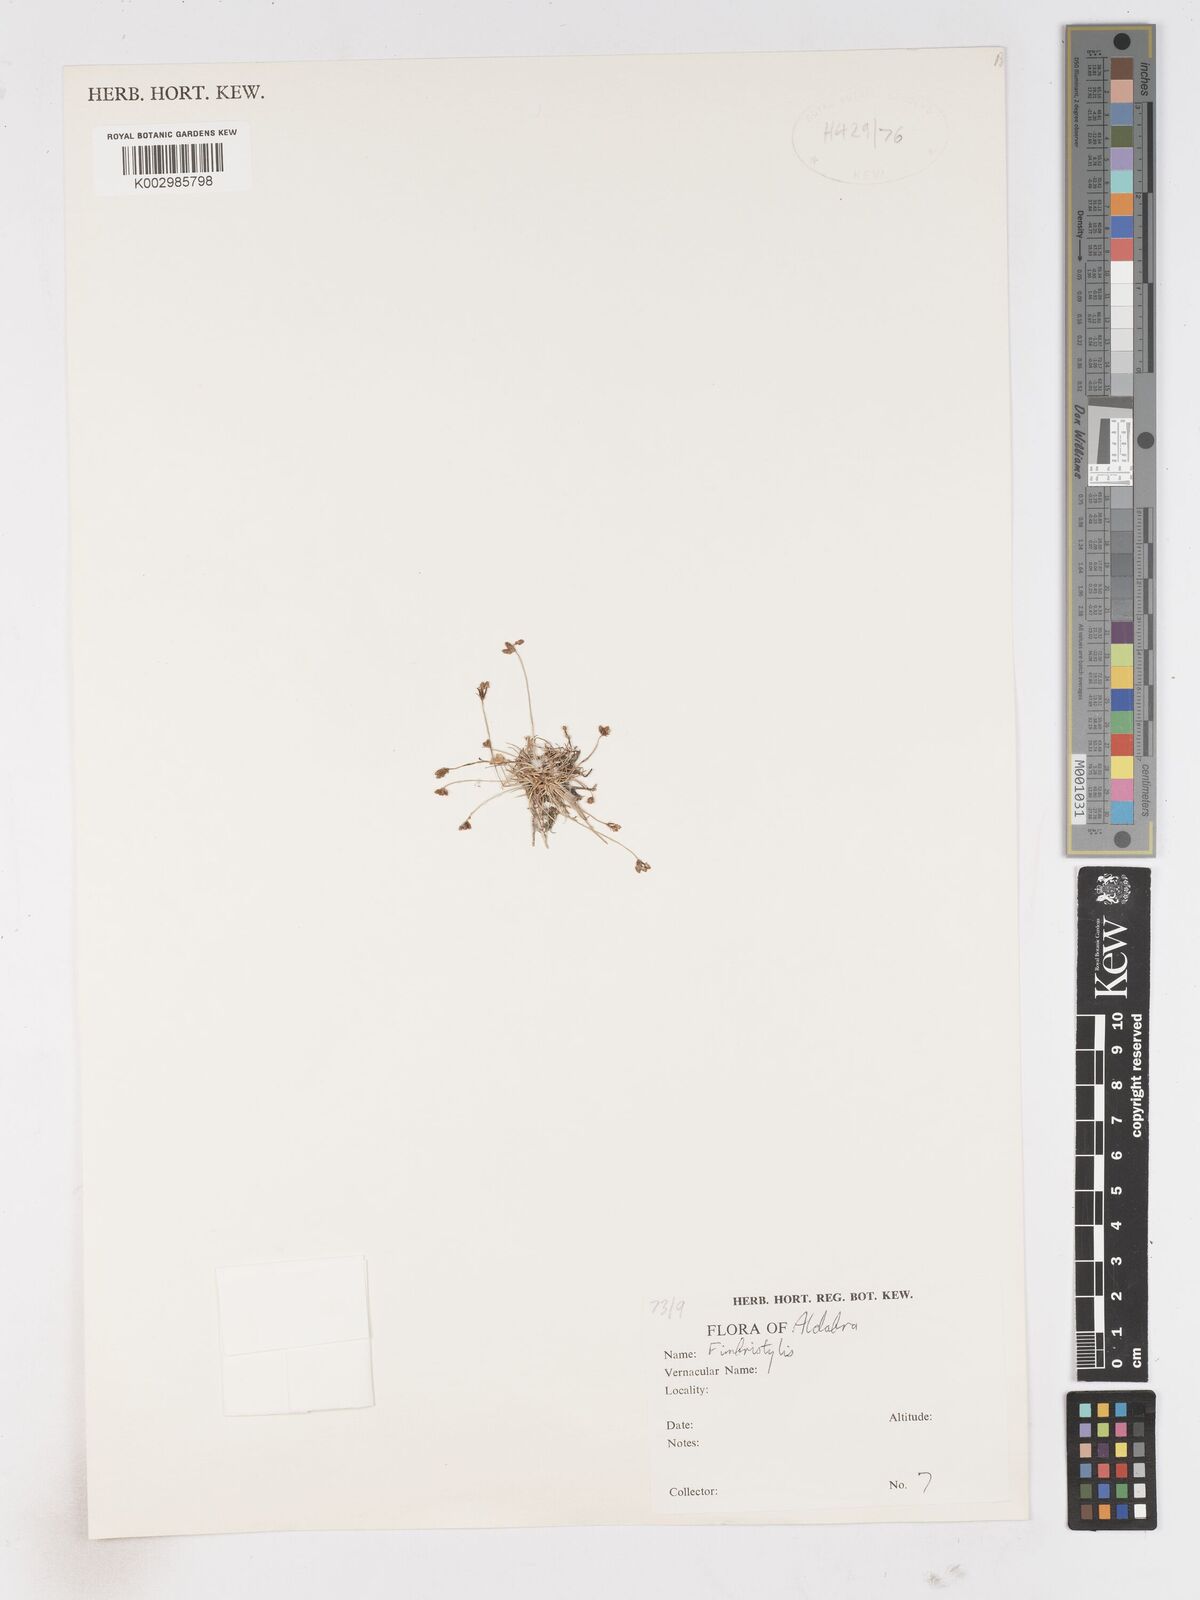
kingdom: Plantae
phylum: Tracheophyta
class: Liliopsida
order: Poales
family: Cyperaceae
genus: Fimbristylis
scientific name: Fimbristylis
